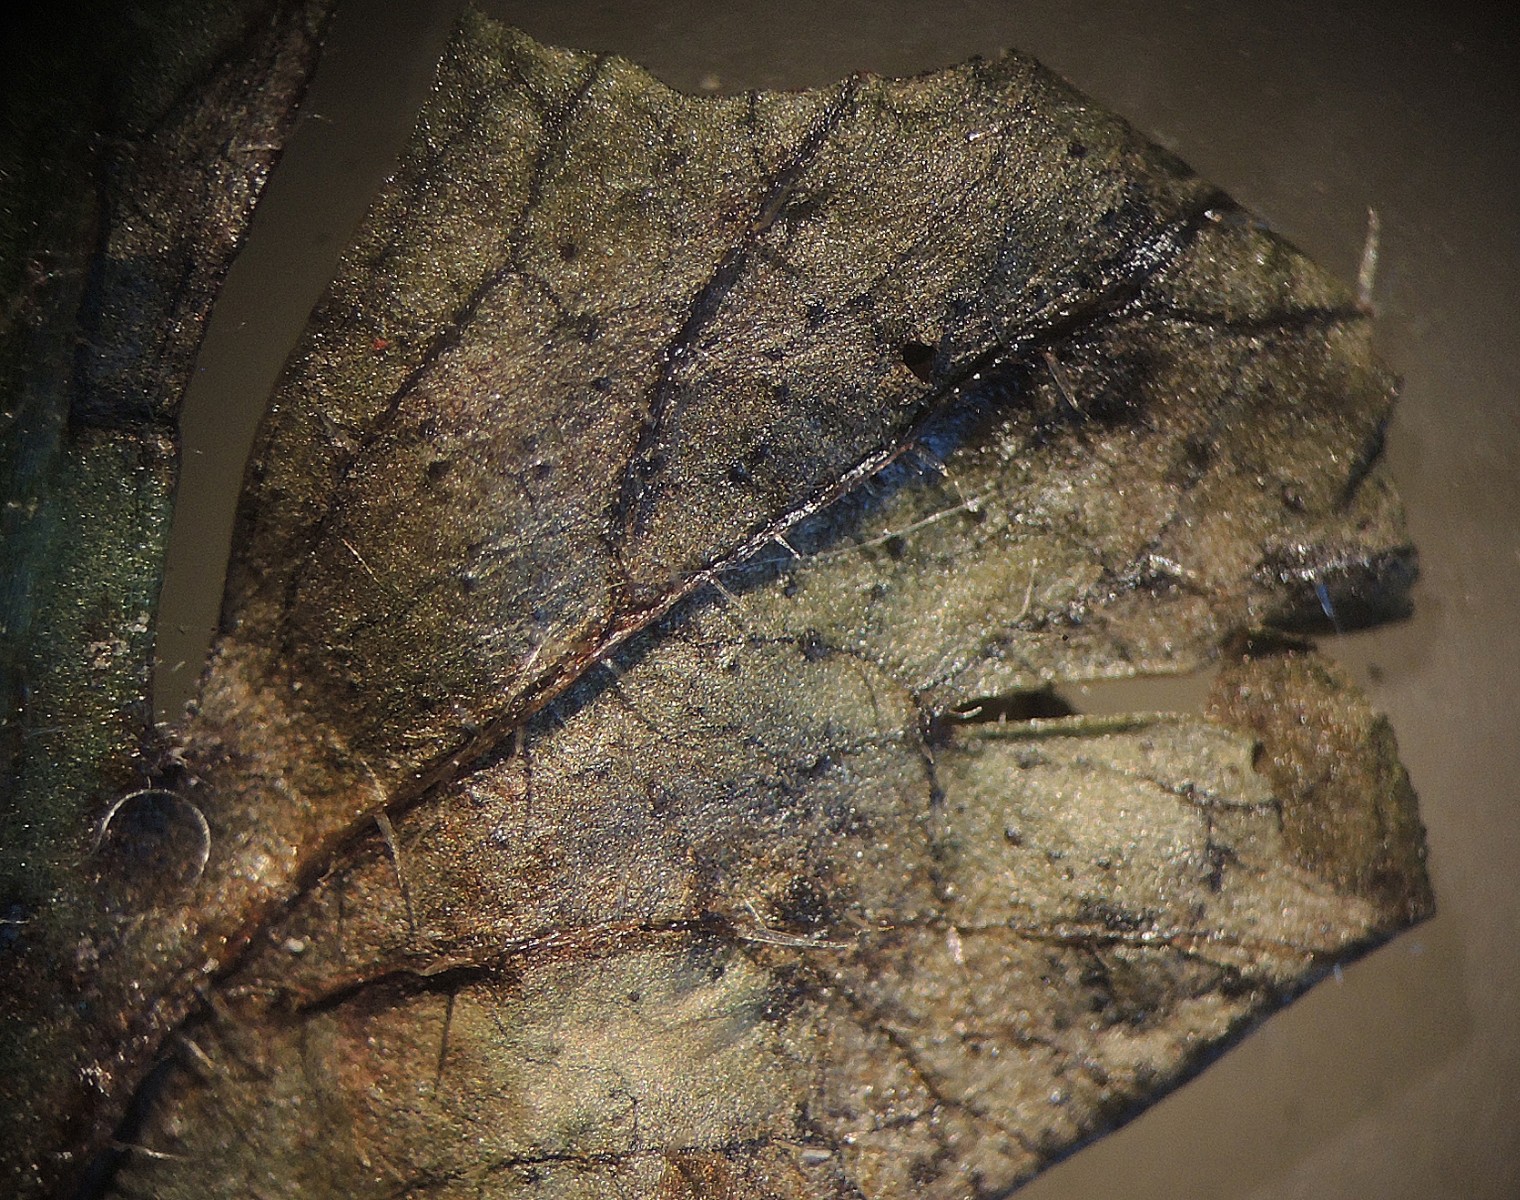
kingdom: Fungi
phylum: Ascomycota
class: Dothideomycetes
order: Mycosphaerellales
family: Mycosphaerellaceae
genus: Septoria
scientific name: Septoria geranii
